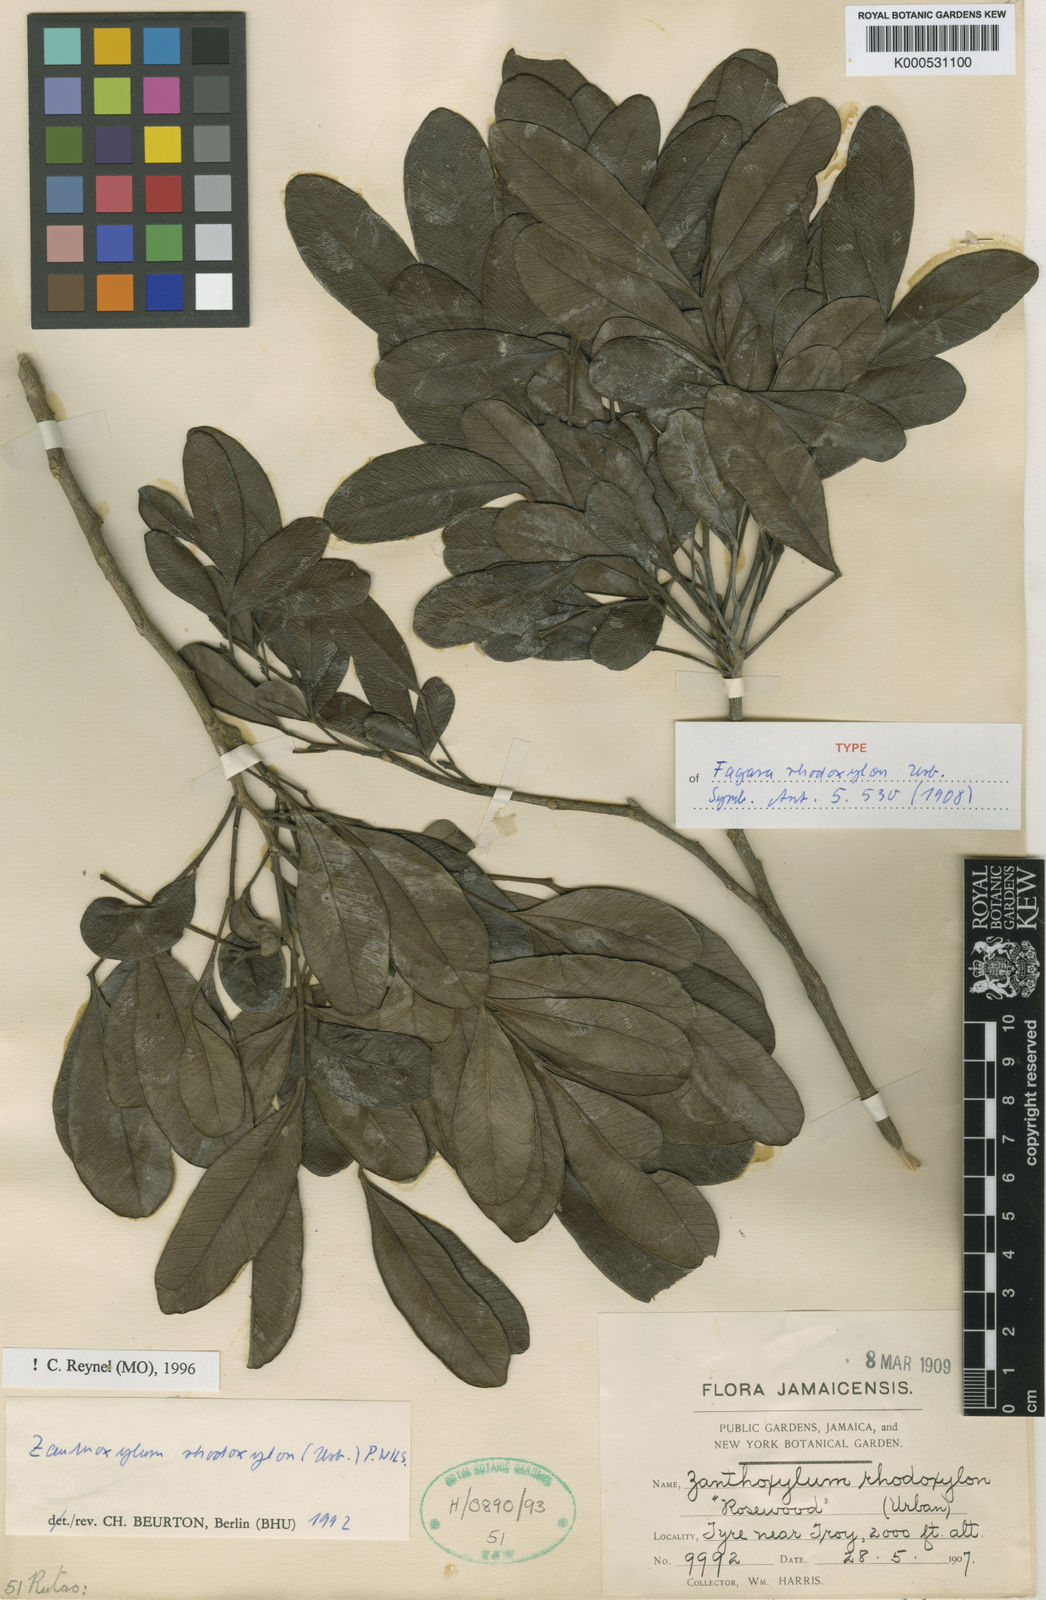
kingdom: Plantae
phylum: Tracheophyta
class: Magnoliopsida
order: Sapindales
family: Rutaceae
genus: Zanthoxylum
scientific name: Zanthoxylum rhodoxylon
